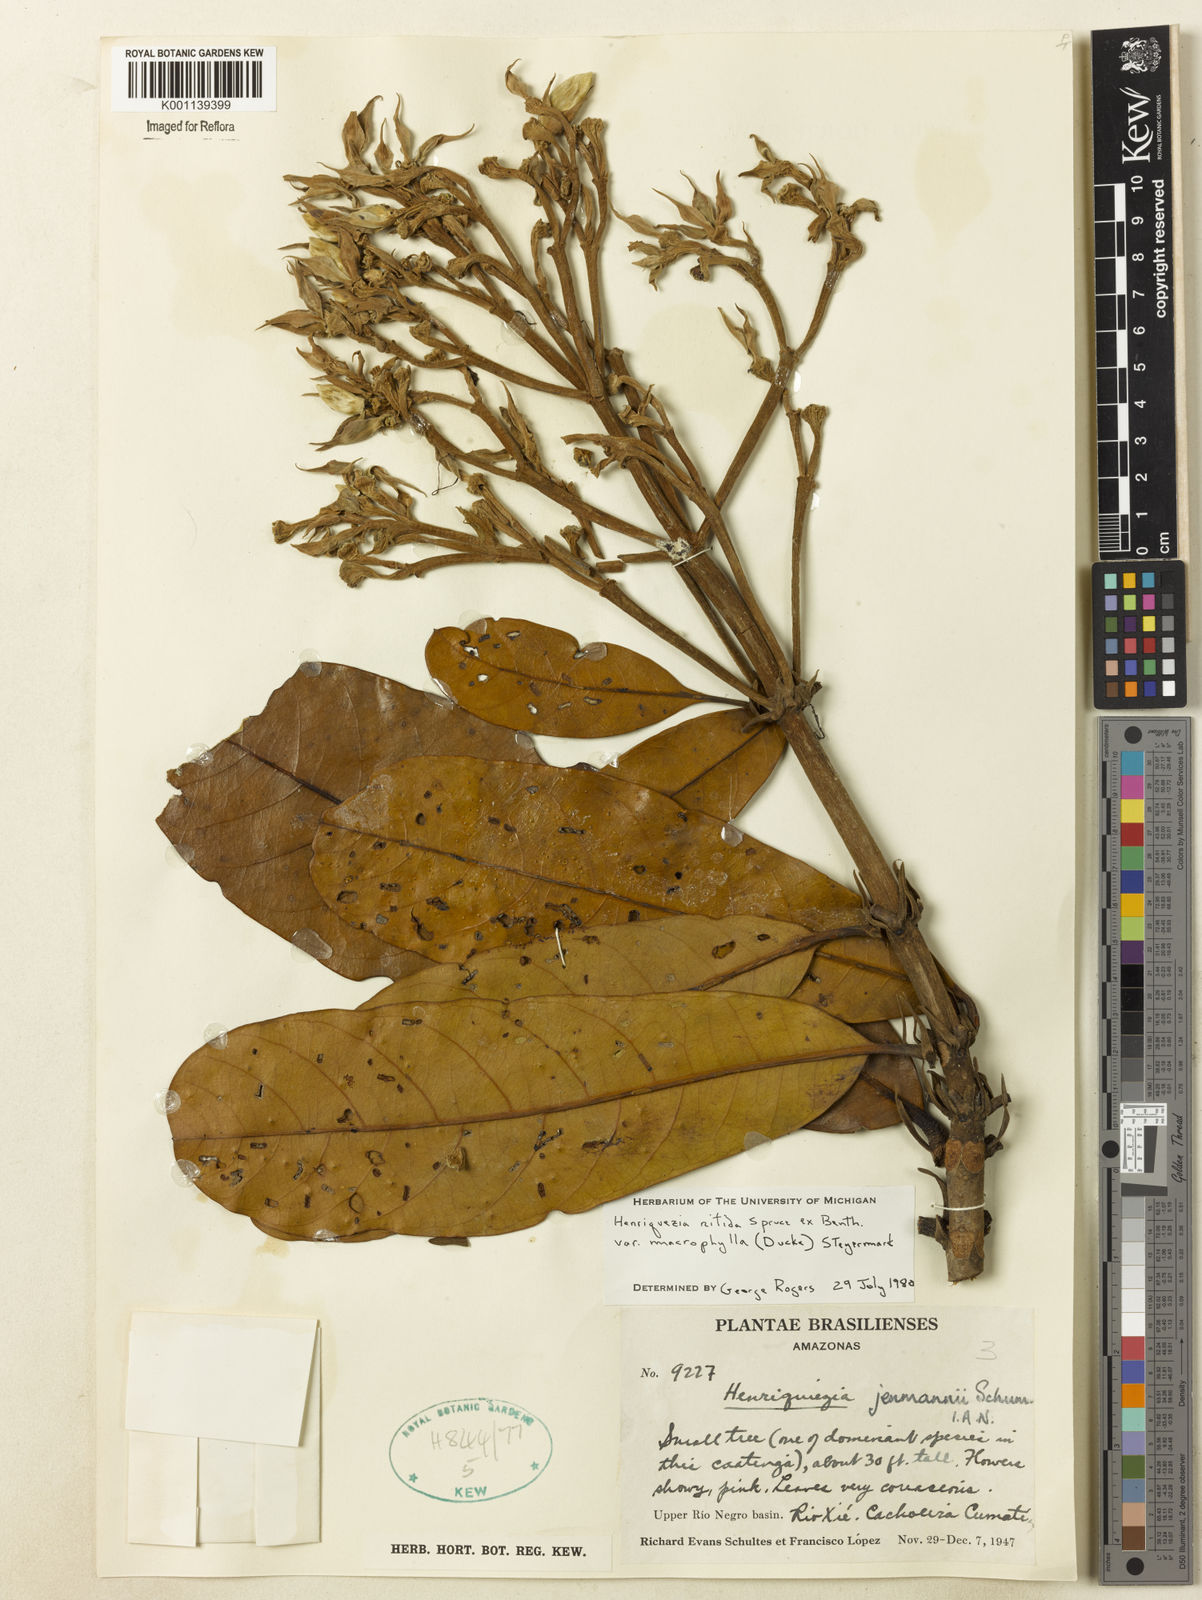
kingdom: Plantae
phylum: Tracheophyta
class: Magnoliopsida
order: Gentianales
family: Rubiaceae
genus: Henriquezia
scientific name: Henriquezia nitida
